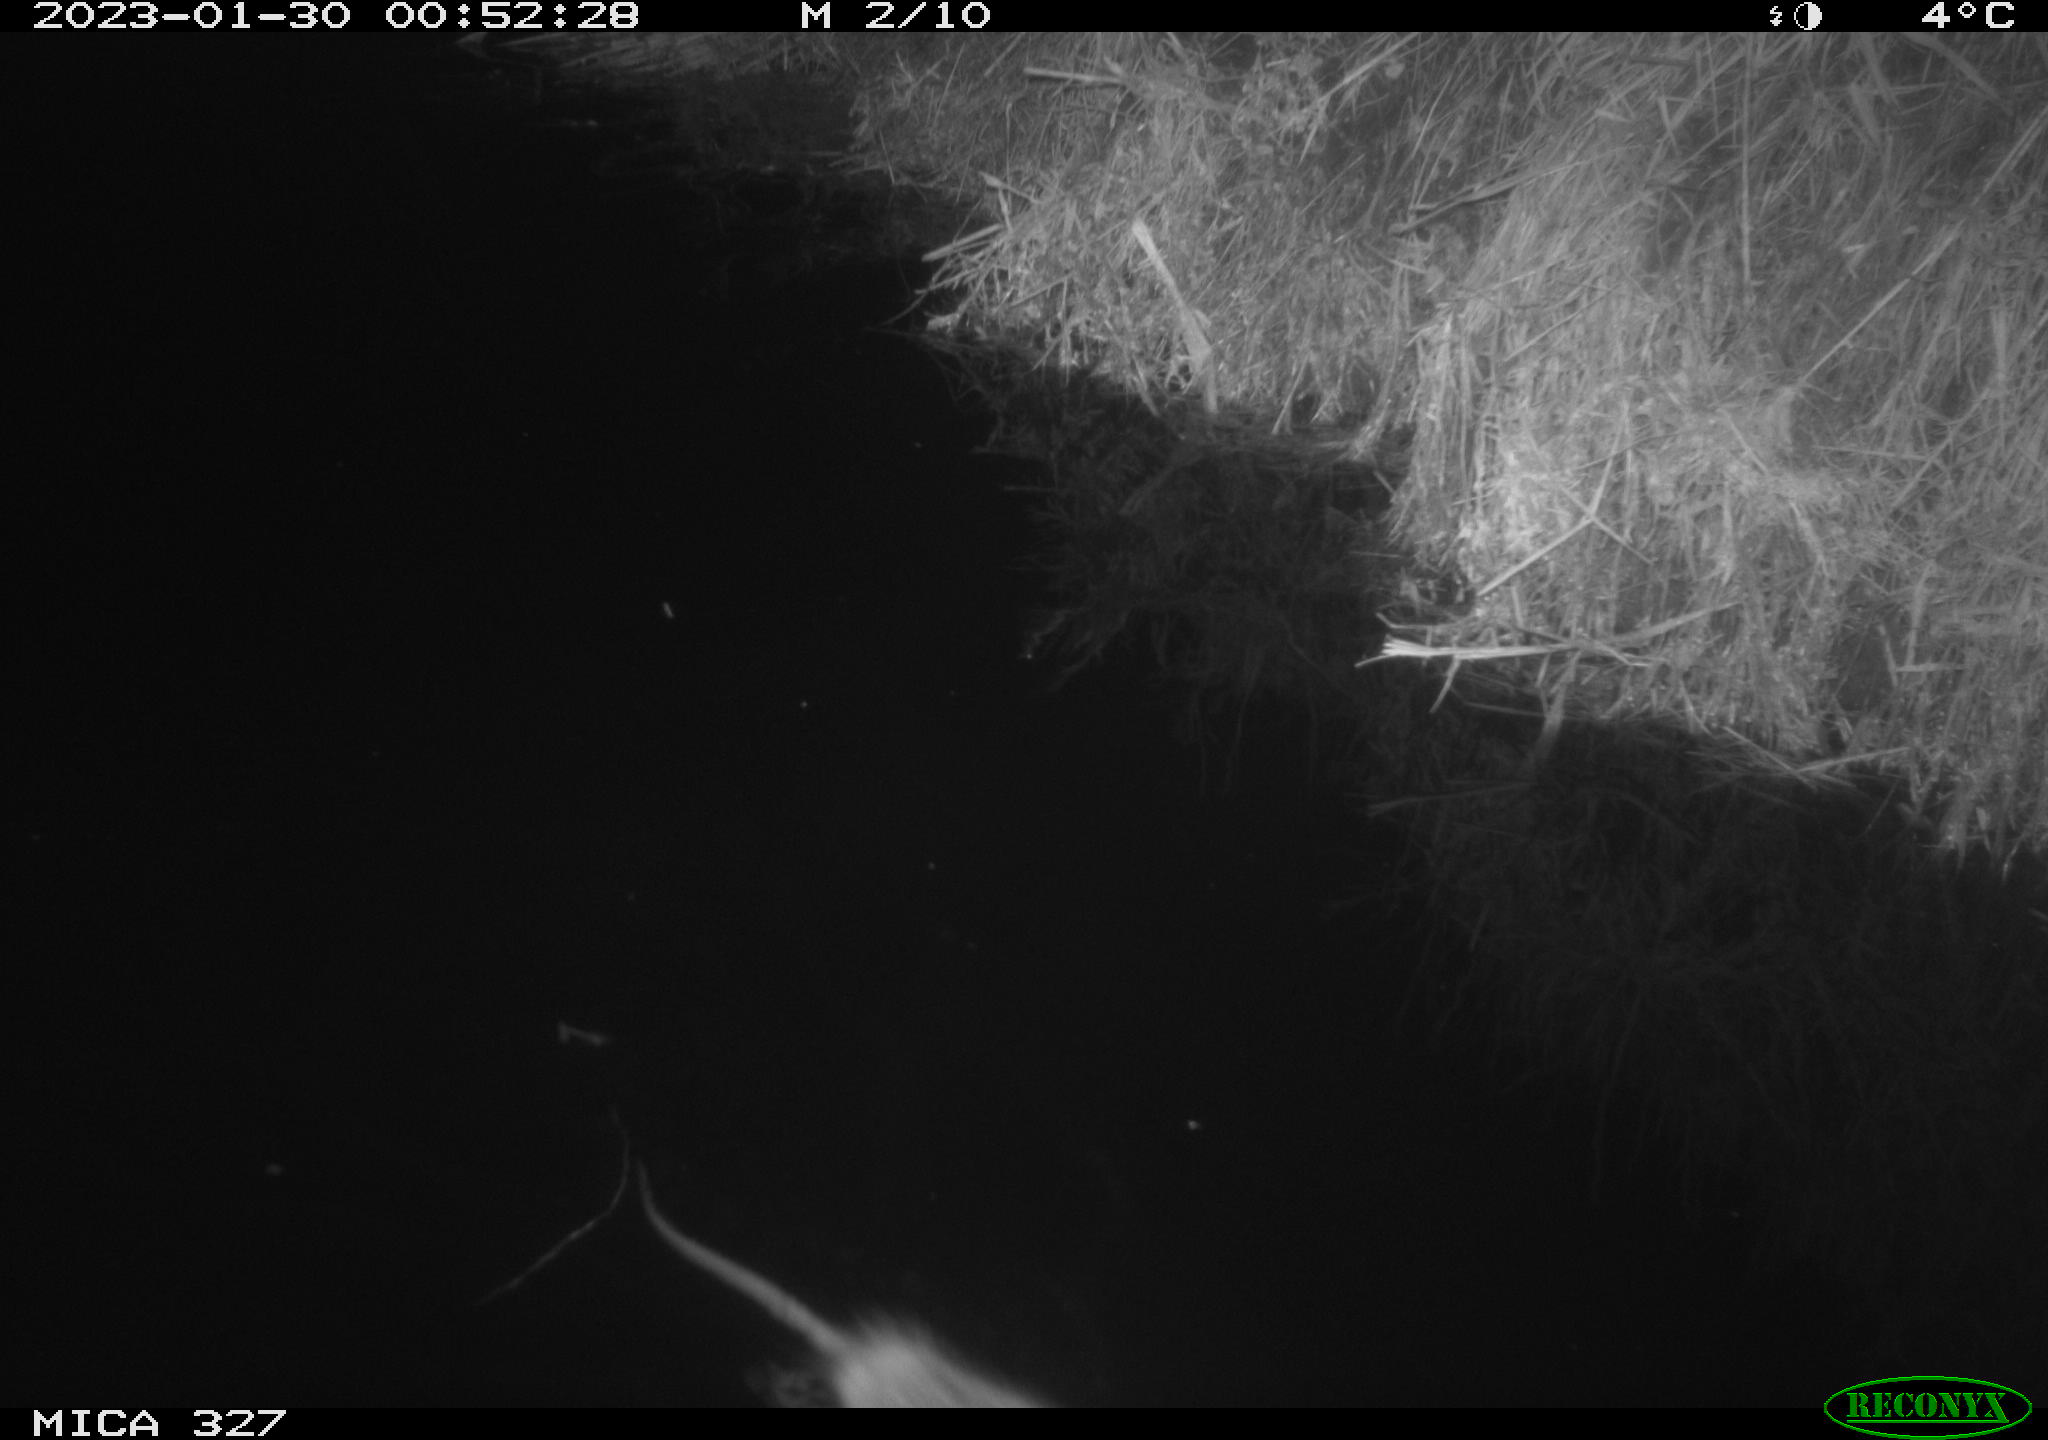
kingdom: Animalia
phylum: Chordata
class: Mammalia
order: Rodentia
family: Cricetidae
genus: Ondatra
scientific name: Ondatra zibethicus
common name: Muskrat
